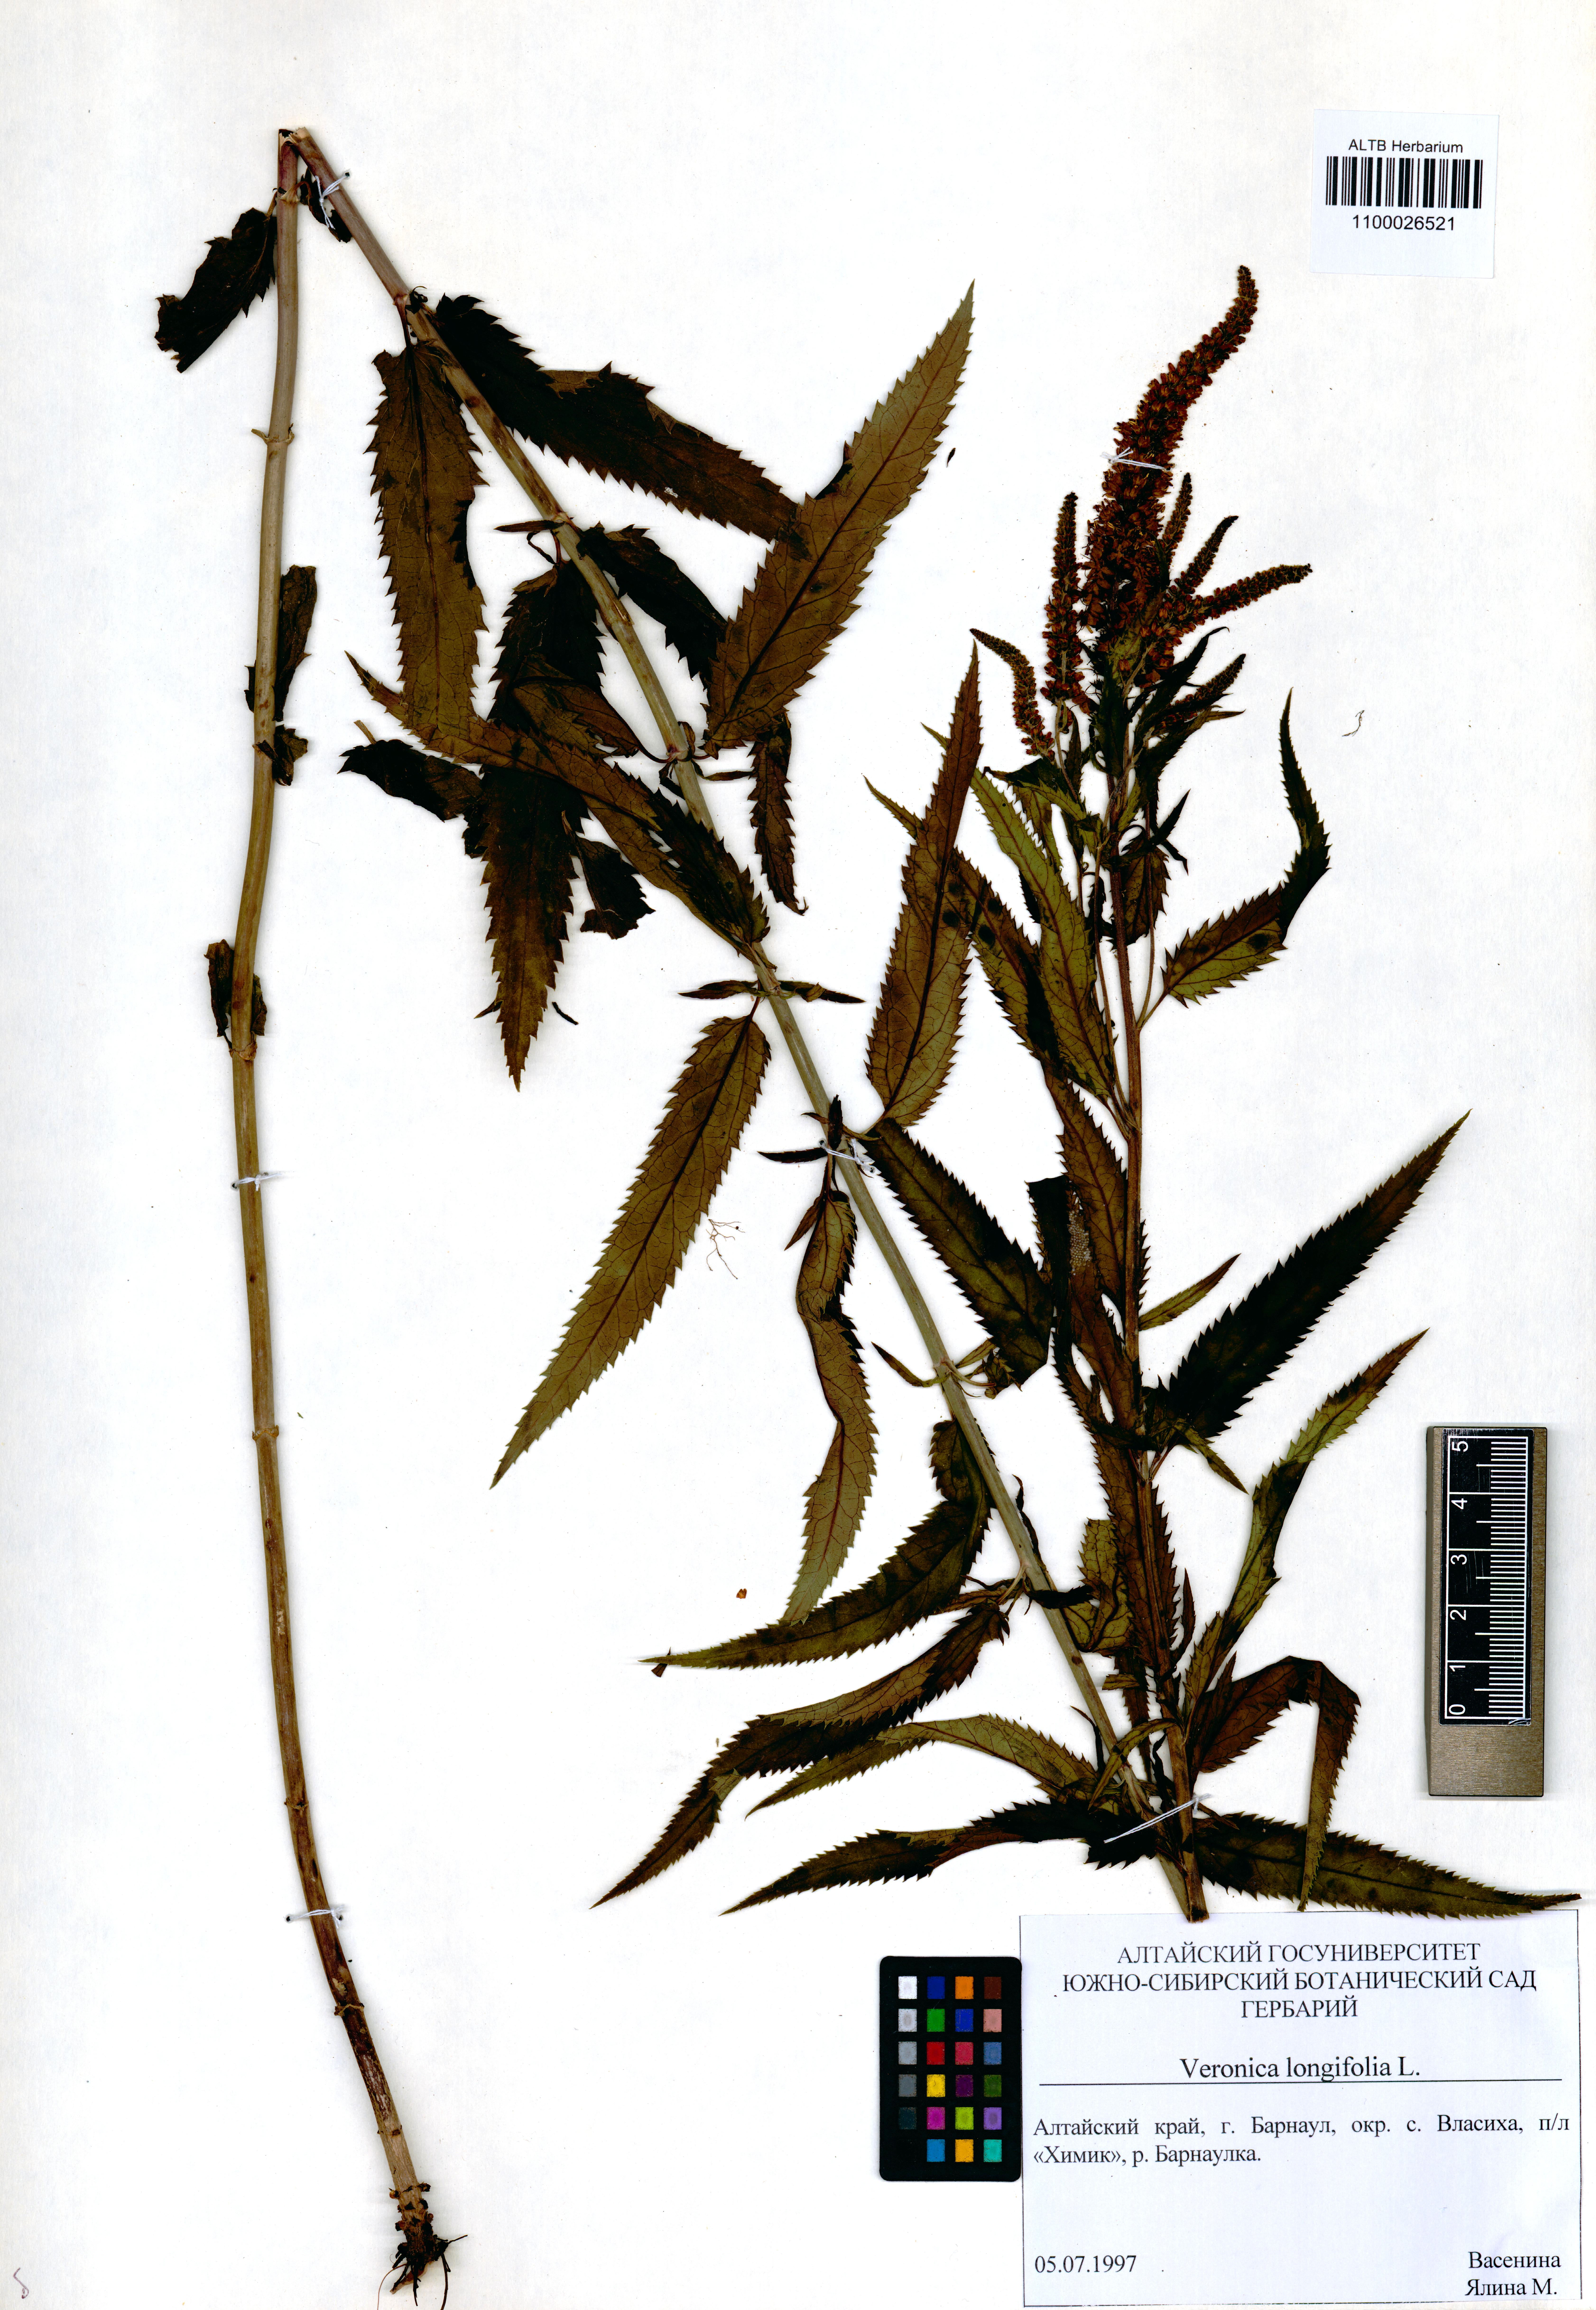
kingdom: Plantae
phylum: Tracheophyta
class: Magnoliopsida
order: Lamiales
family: Plantaginaceae
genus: Veronica
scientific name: Veronica longifolia
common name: Garden speedwell
